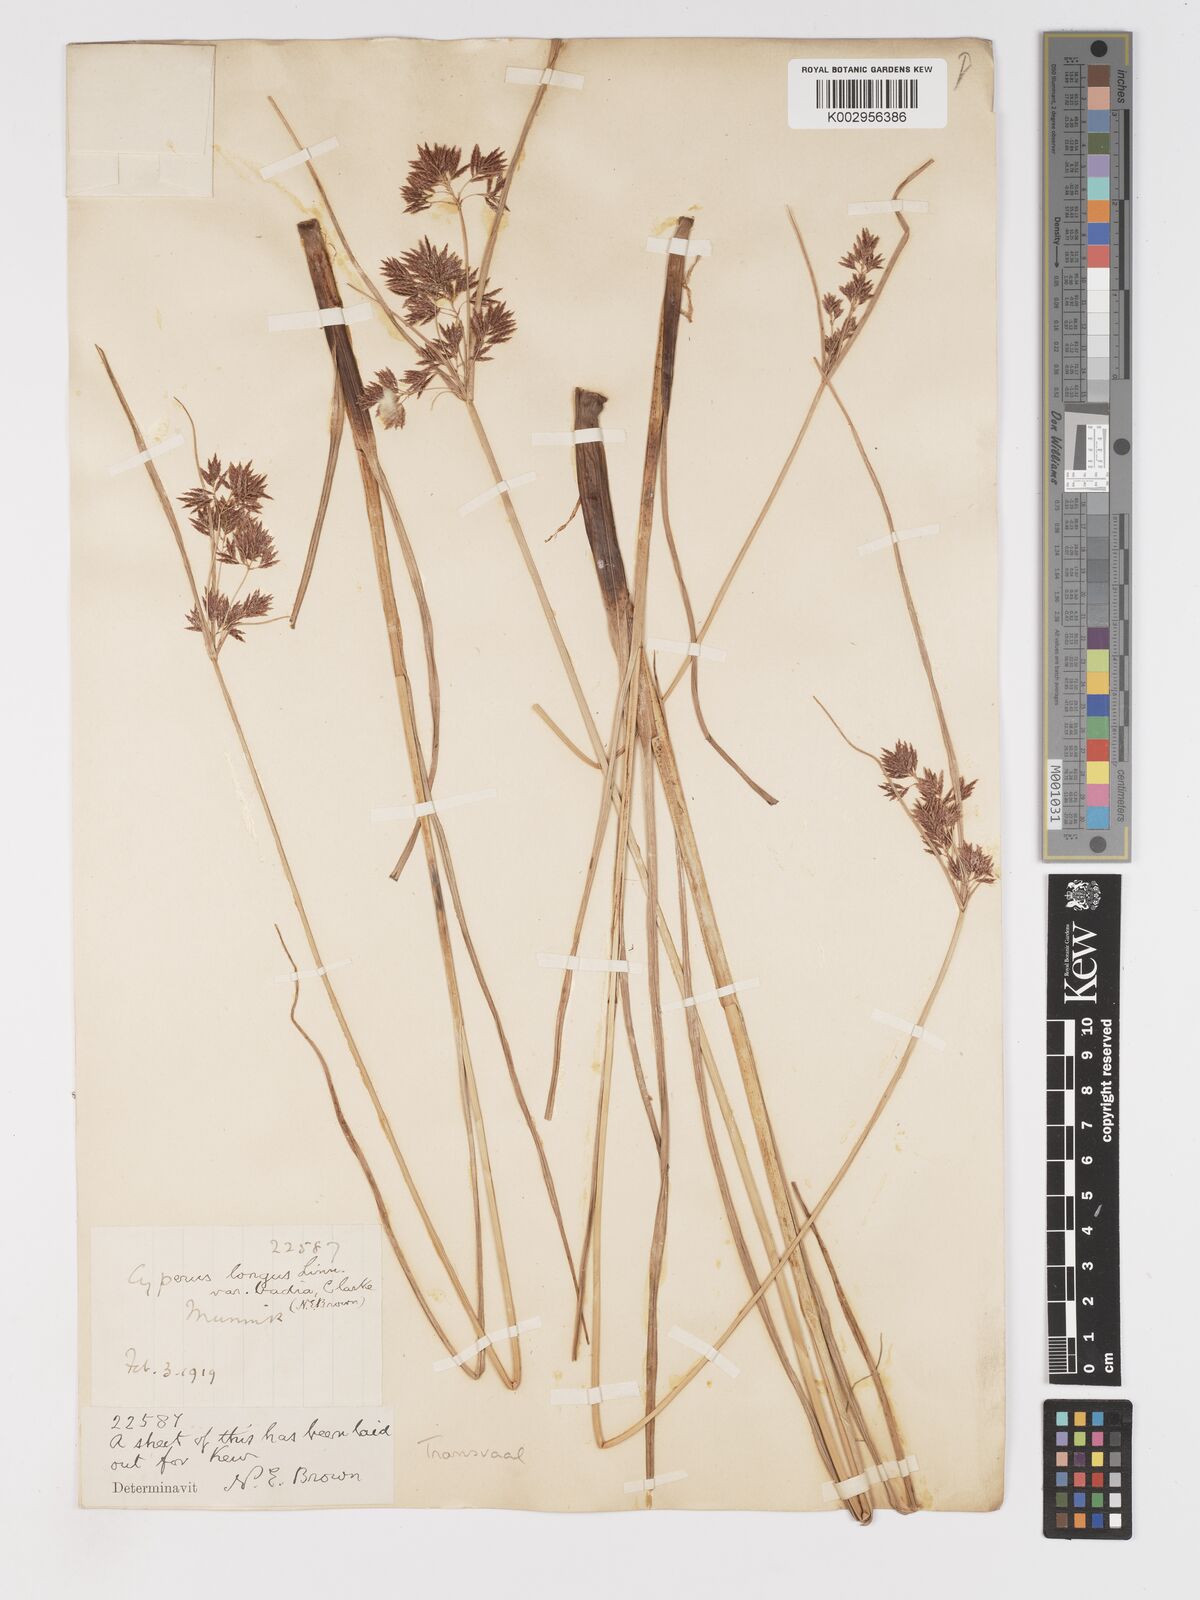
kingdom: Plantae
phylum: Tracheophyta
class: Liliopsida
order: Poales
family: Cyperaceae
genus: Cyperus
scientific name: Cyperus longus
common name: Galingale
